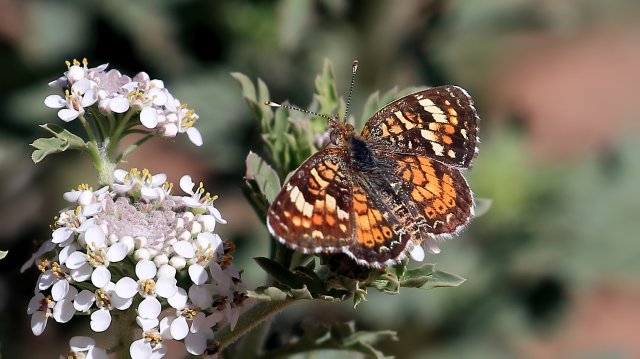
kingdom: Animalia
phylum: Arthropoda
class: Insecta
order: Lepidoptera
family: Nymphalidae
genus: Eresia
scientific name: Eresia aveyrona
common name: Mylitta Crescent
